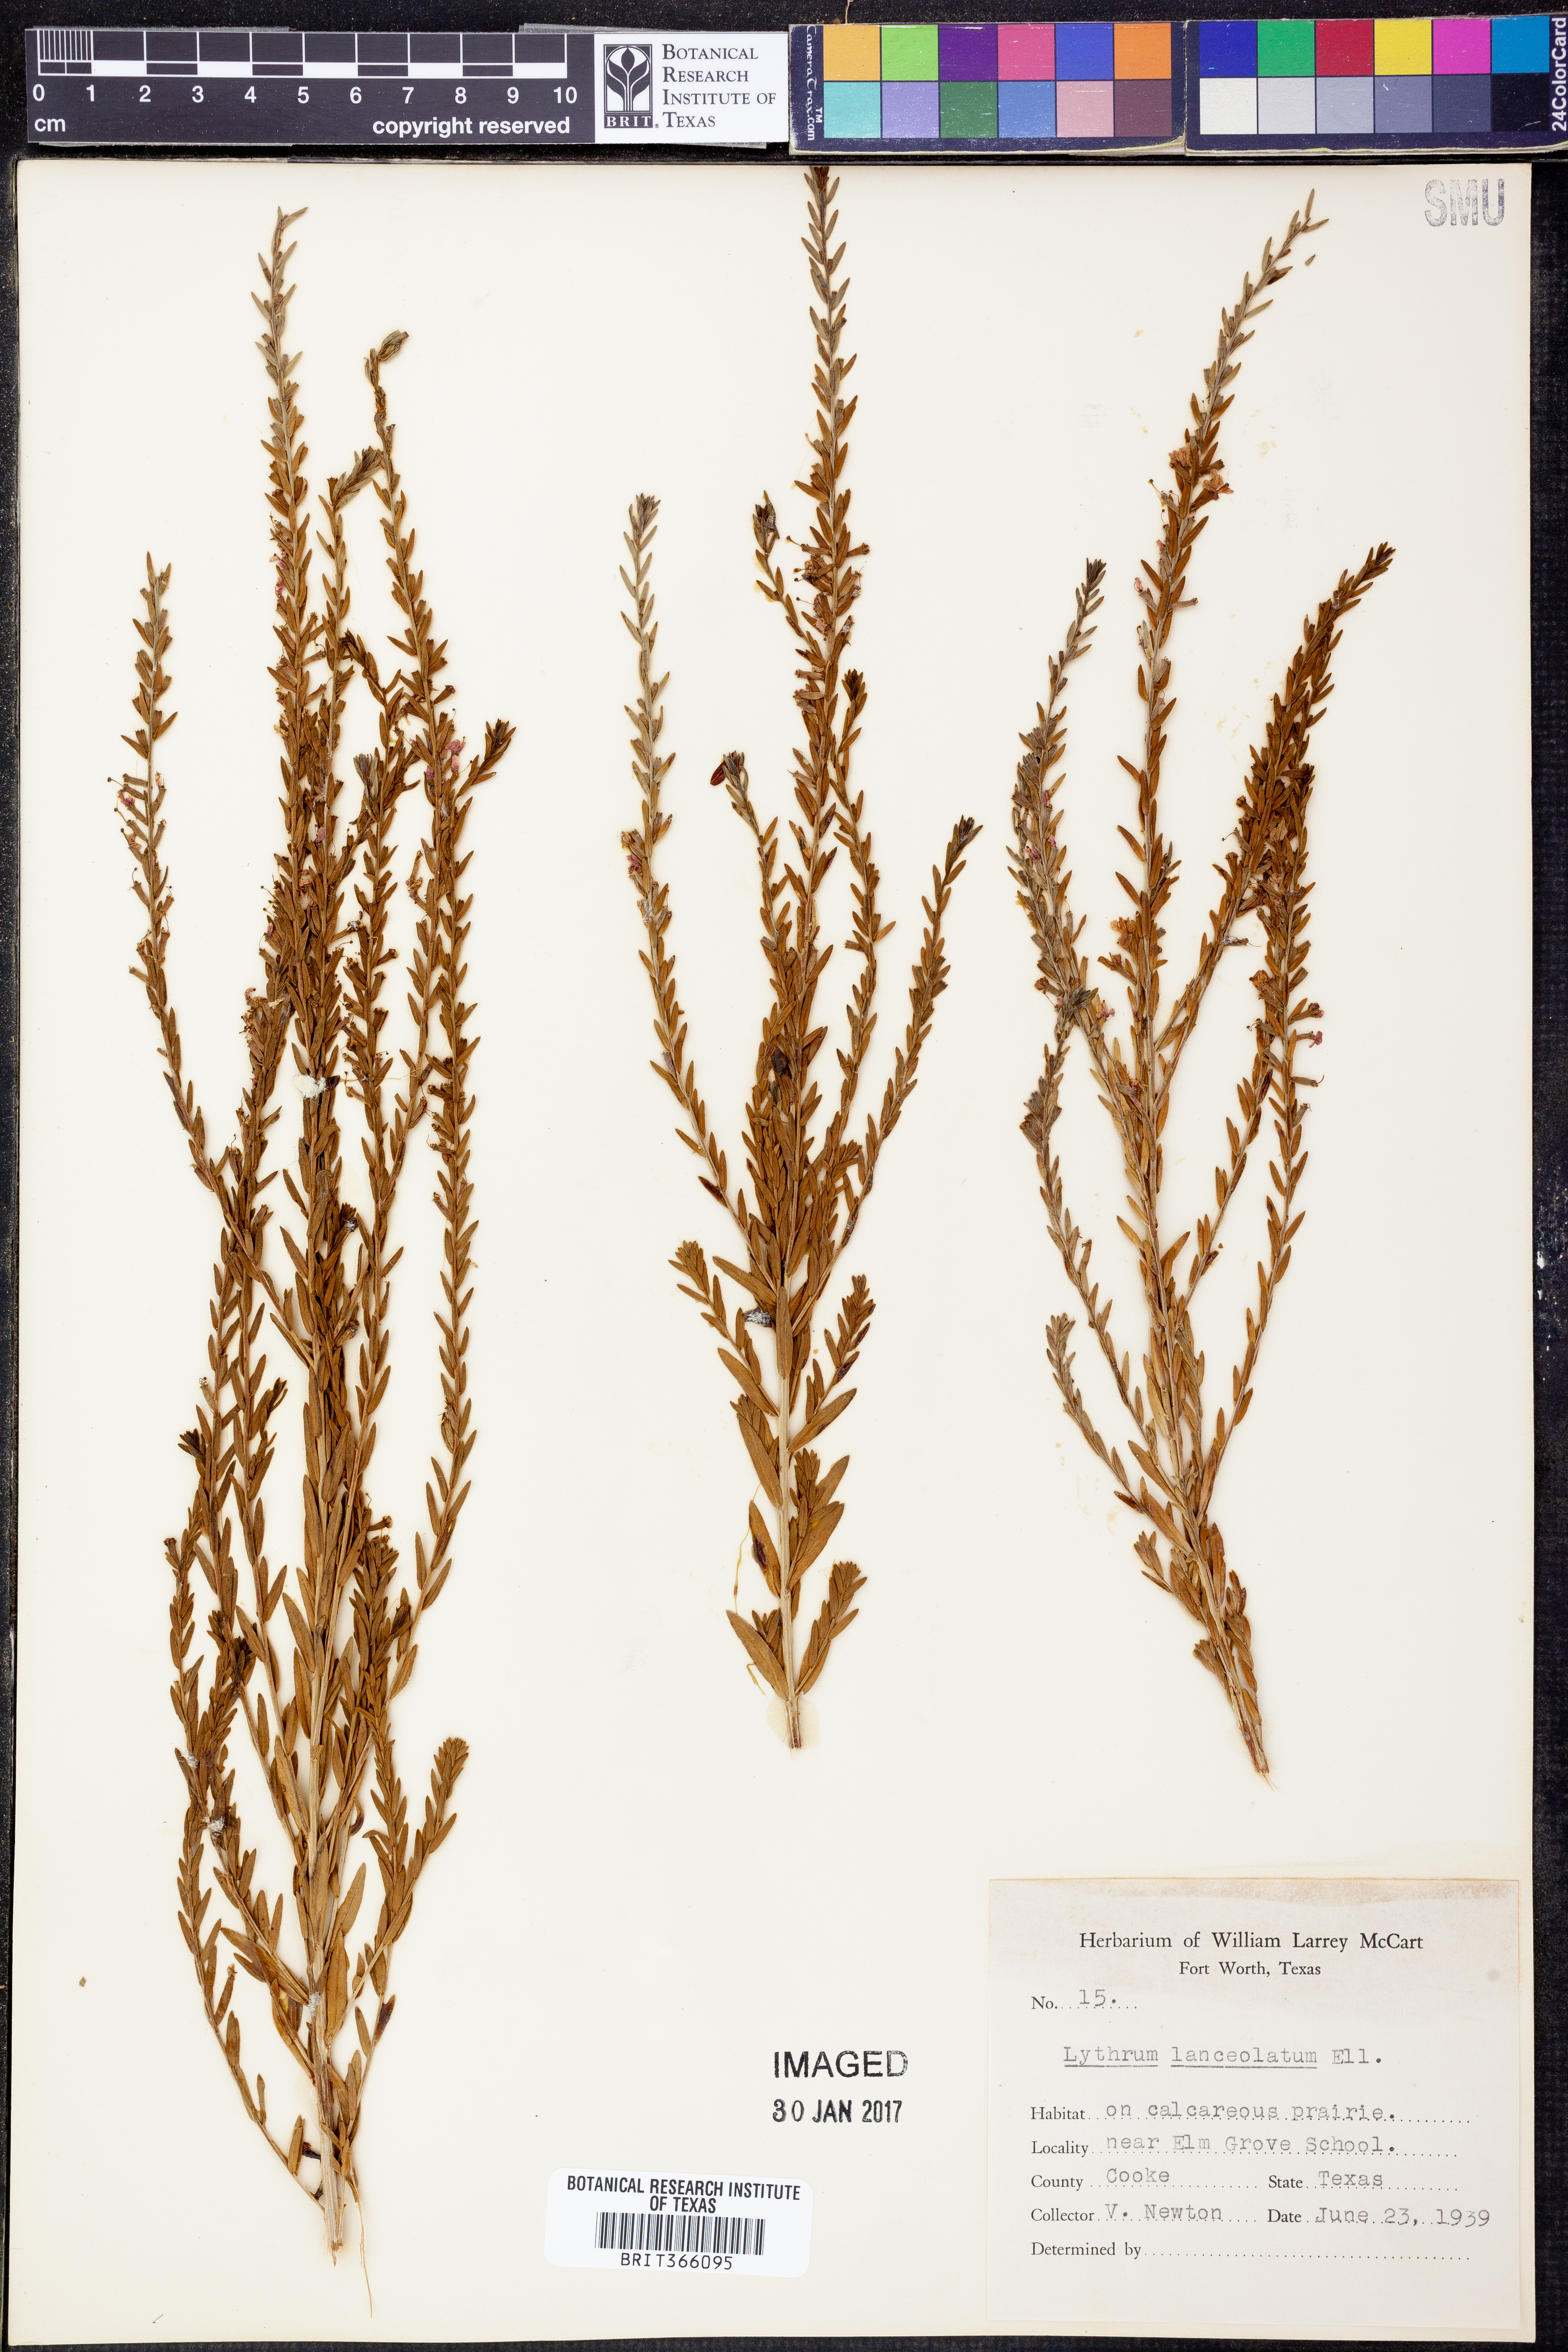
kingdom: Plantae
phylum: Tracheophyta
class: Magnoliopsida
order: Myrtales
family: Lythraceae
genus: Lythrum
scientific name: Lythrum alatum
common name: Winged loosestrife
